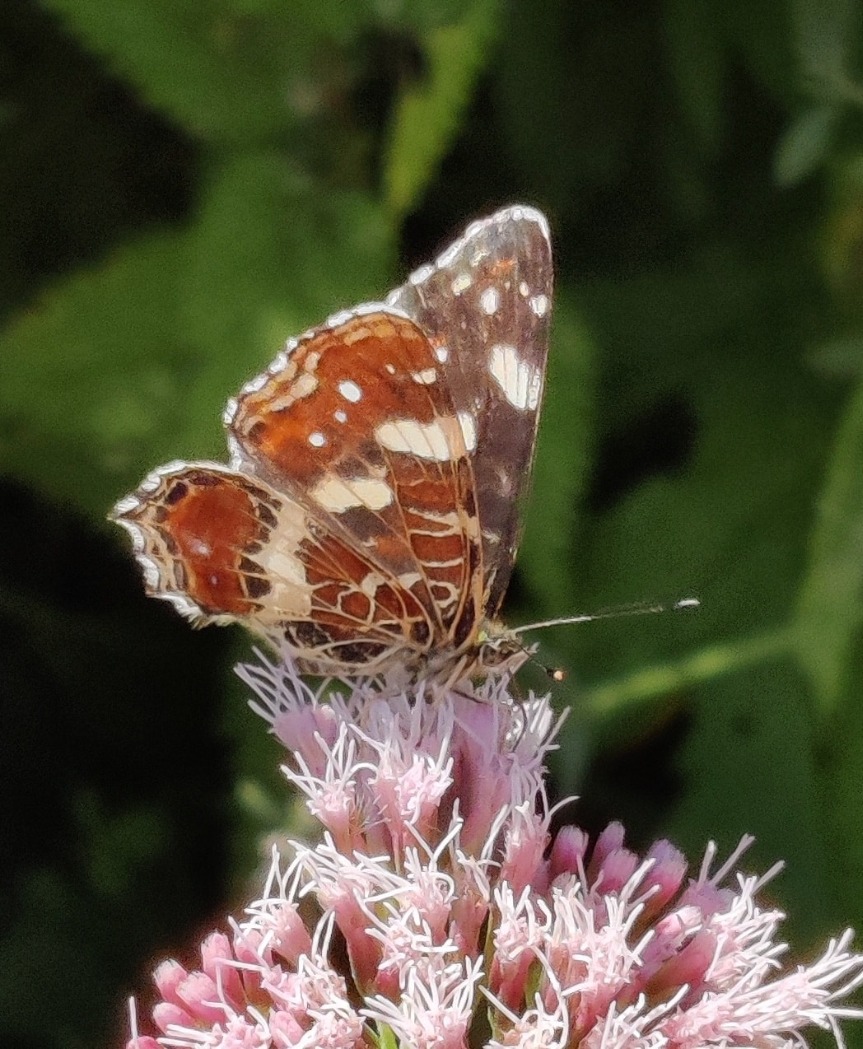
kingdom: Animalia
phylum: Arthropoda
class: Insecta
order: Lepidoptera
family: Nymphalidae
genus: Araschnia
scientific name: Araschnia levana
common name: Nældesommerfugl
